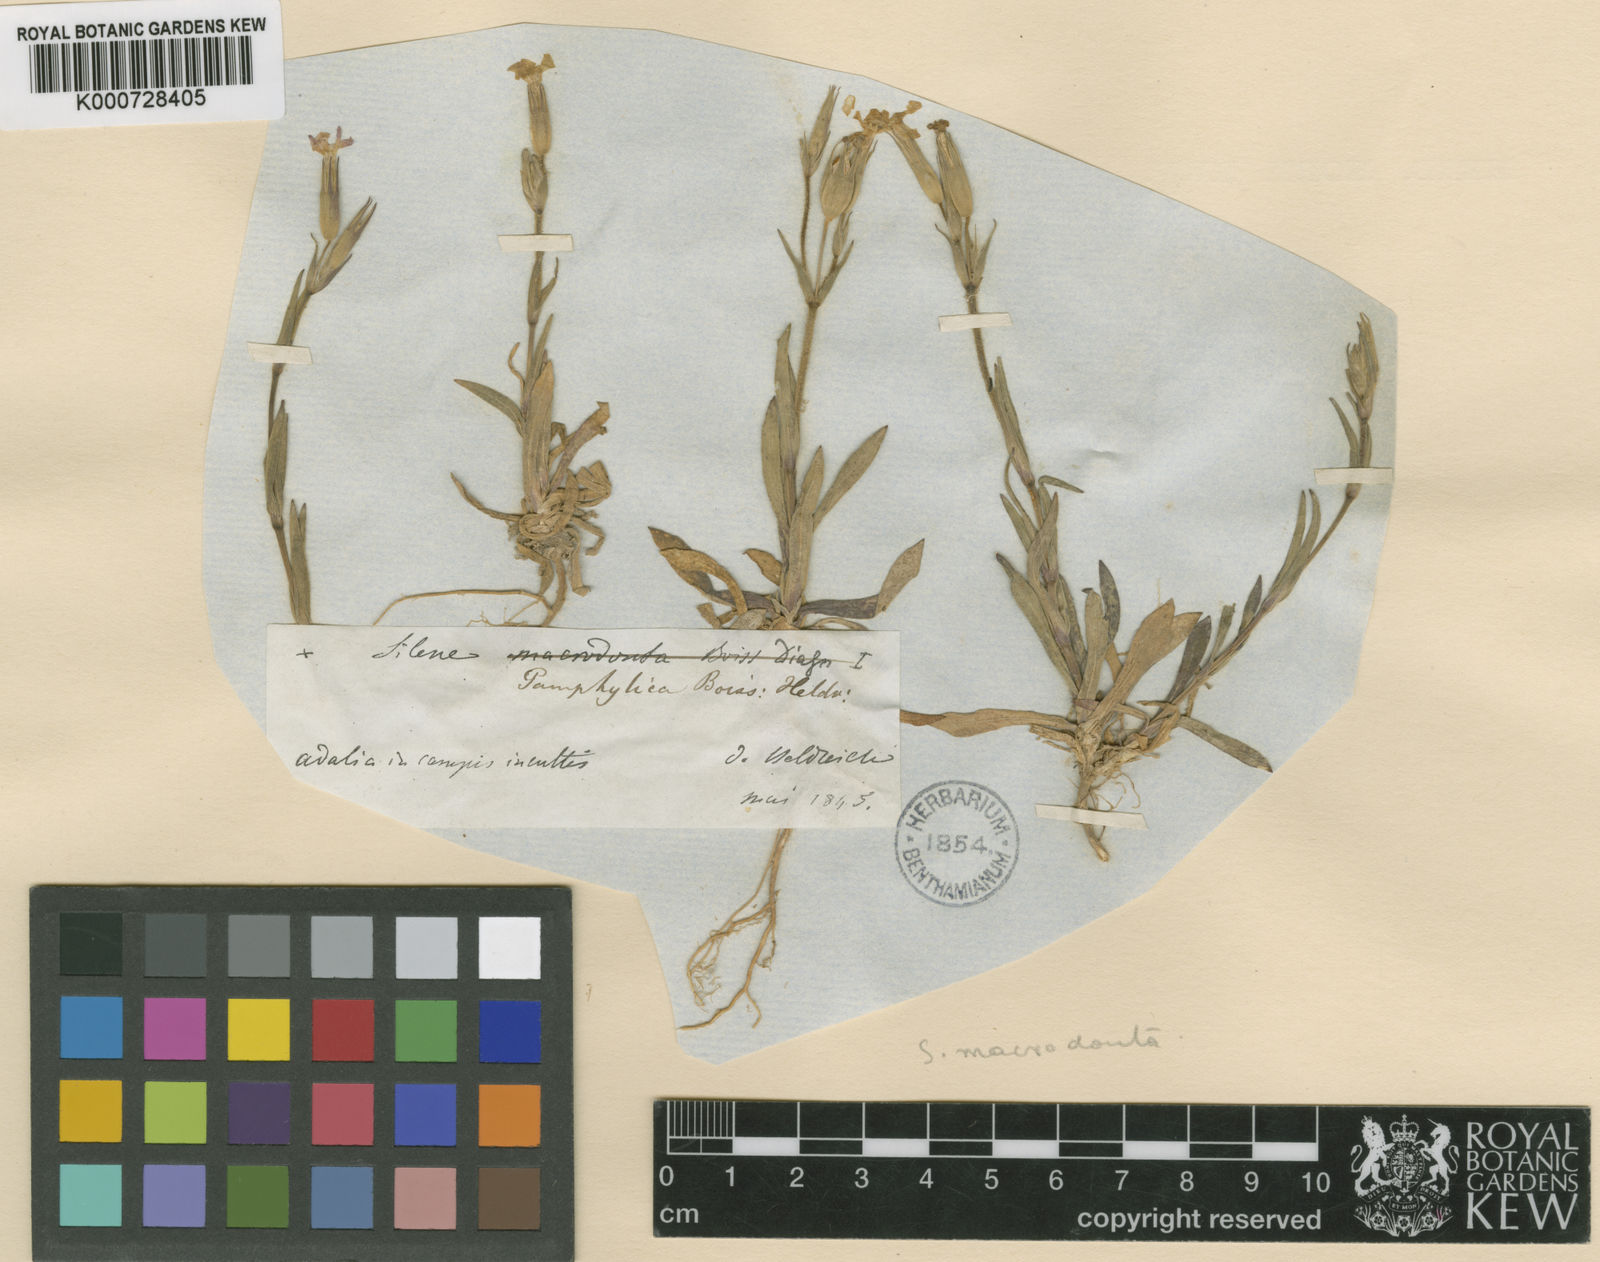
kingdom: Plantae
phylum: Tracheophyta
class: Magnoliopsida
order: Caryophyllales
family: Caryophyllaceae
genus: Silene
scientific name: Silene macrodonta
